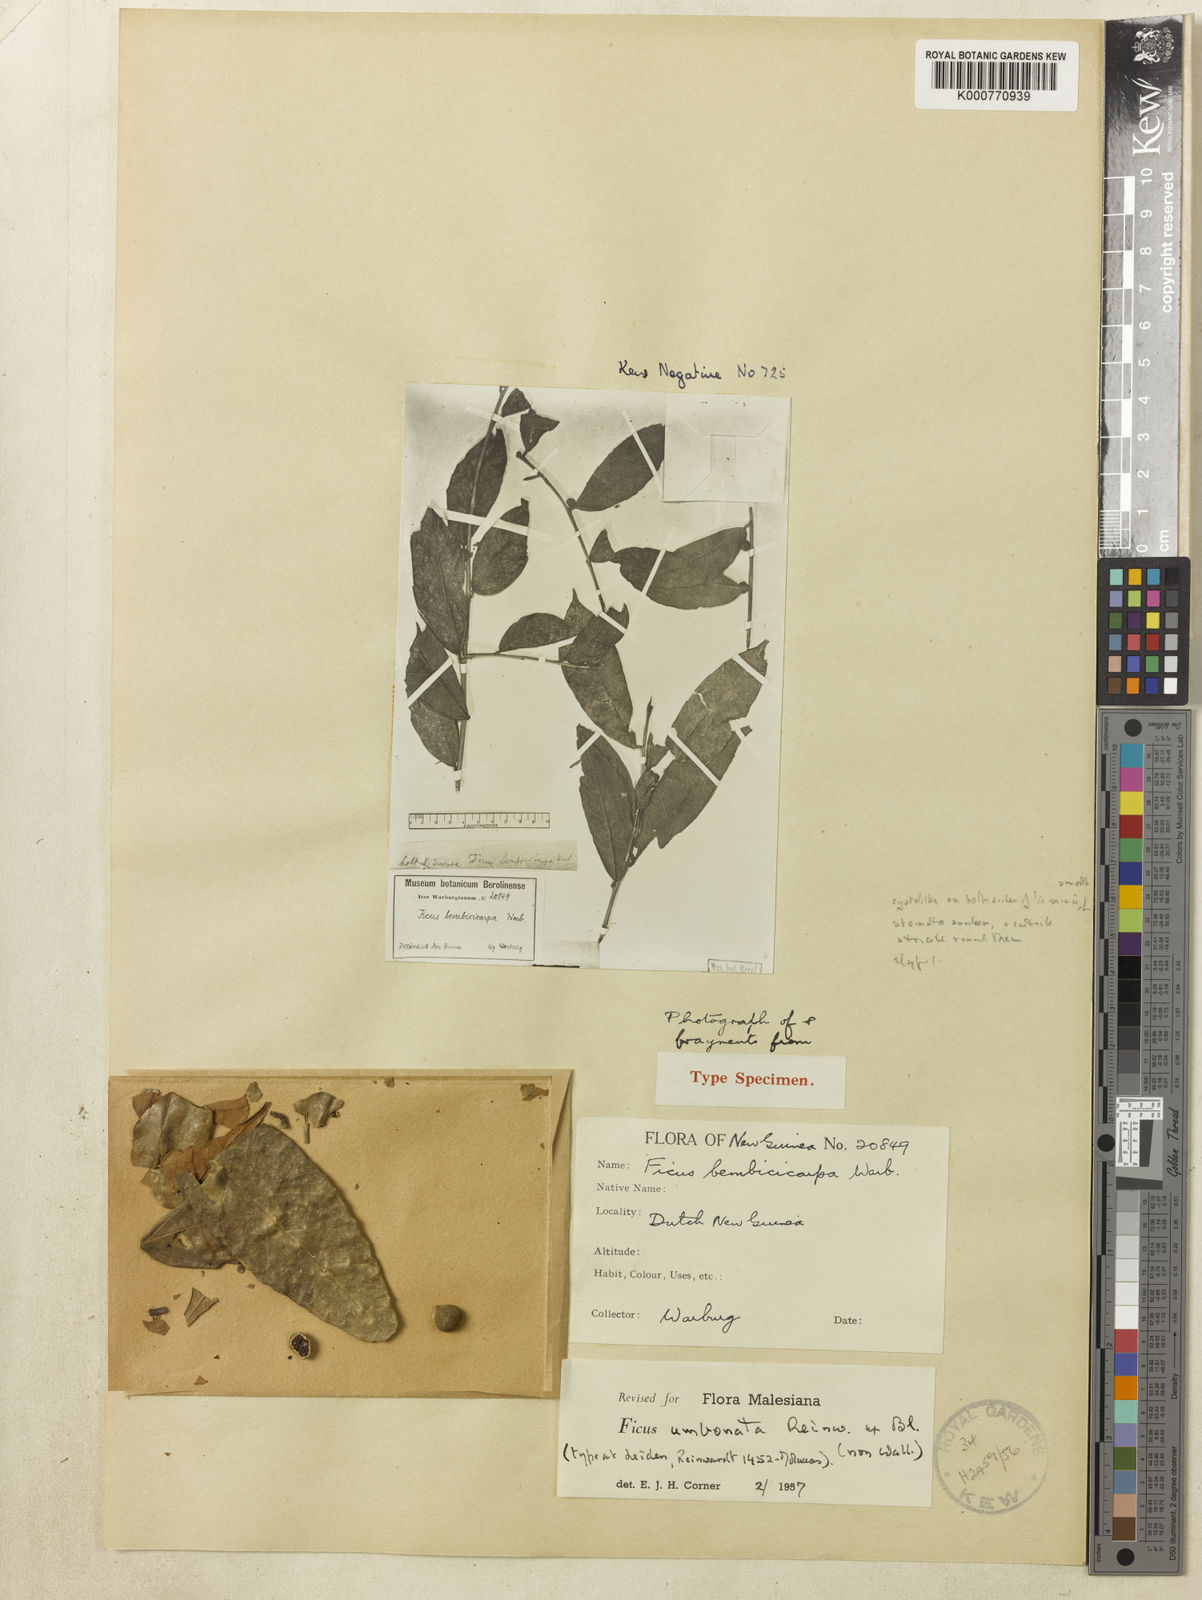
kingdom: Plantae
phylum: Tracheophyta
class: Magnoliopsida
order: Rosales
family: Moraceae
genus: Ficus
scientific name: Ficus umbonata
